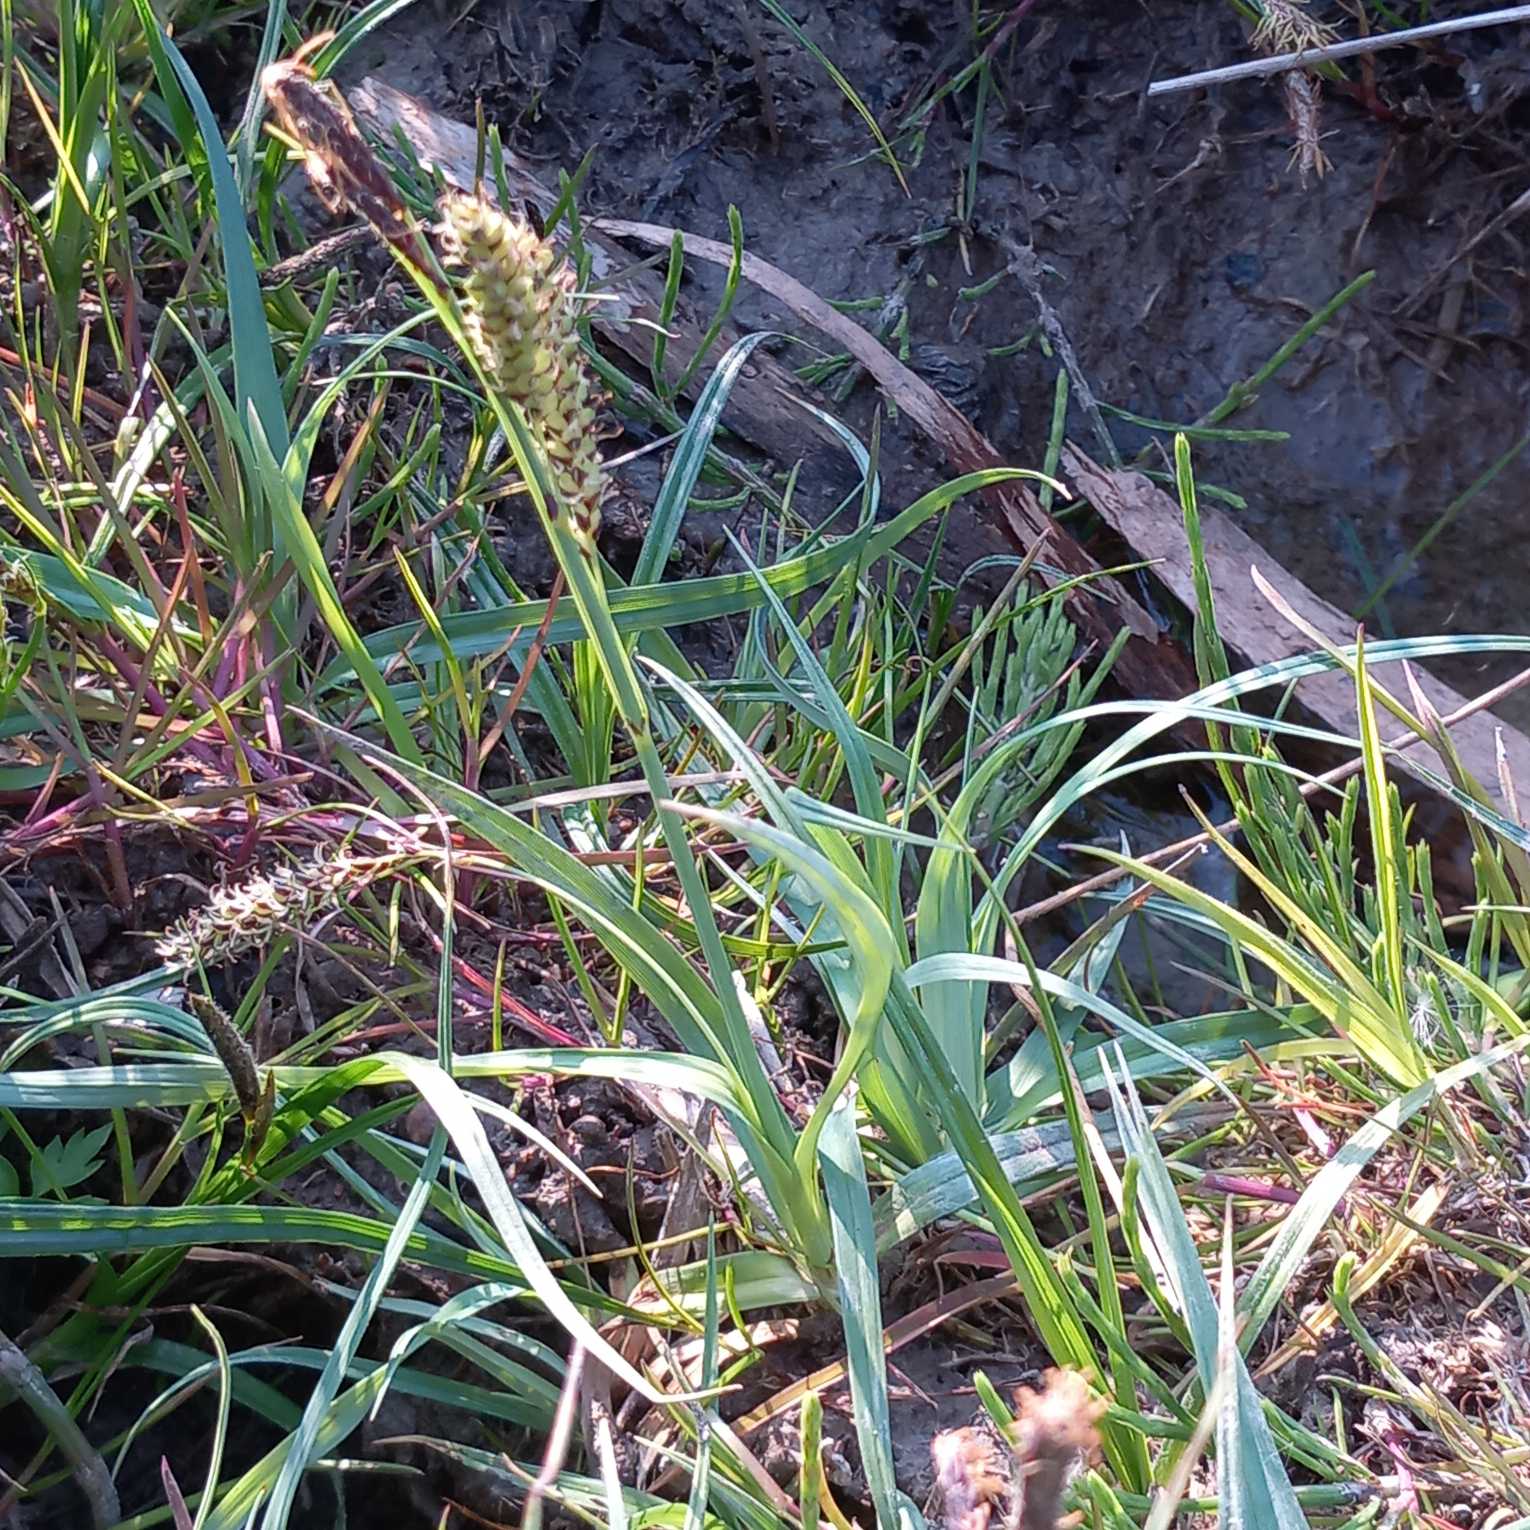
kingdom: Plantae
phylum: Tracheophyta
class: Liliopsida
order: Poales
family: Cyperaceae
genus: Carex
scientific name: Carex flacca
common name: Blågrøn star
